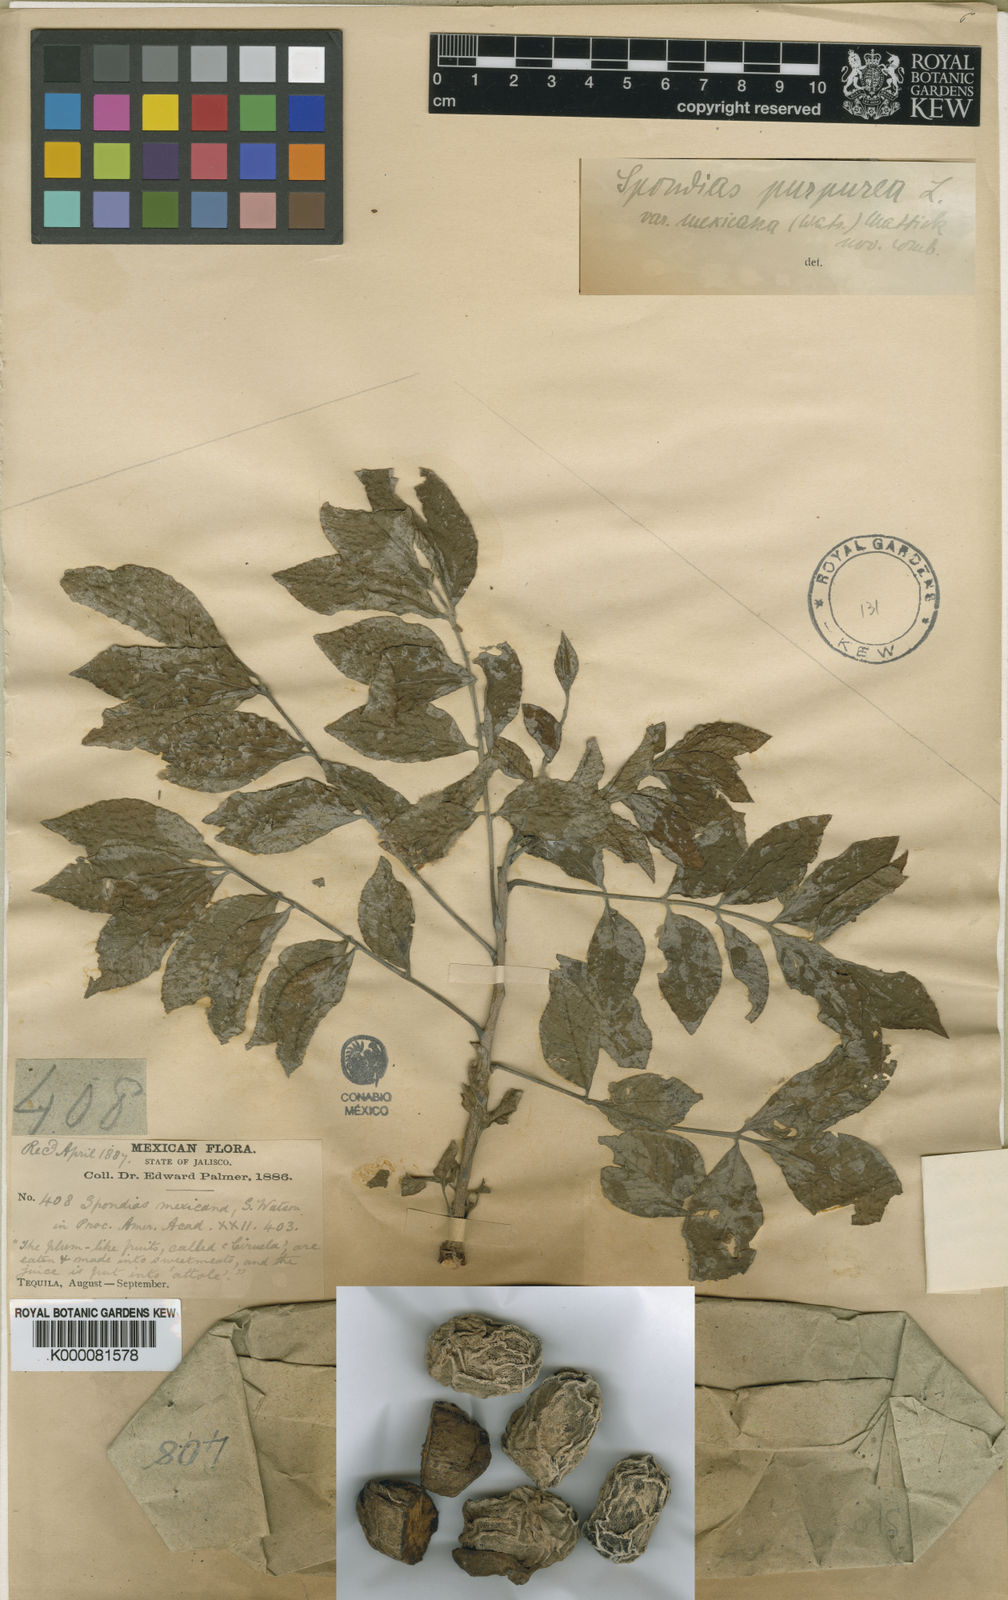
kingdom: Plantae
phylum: Tracheophyta
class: Magnoliopsida
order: Sapindales
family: Anacardiaceae
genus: Spondias
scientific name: Spondias purpurea
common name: Purple mombin
